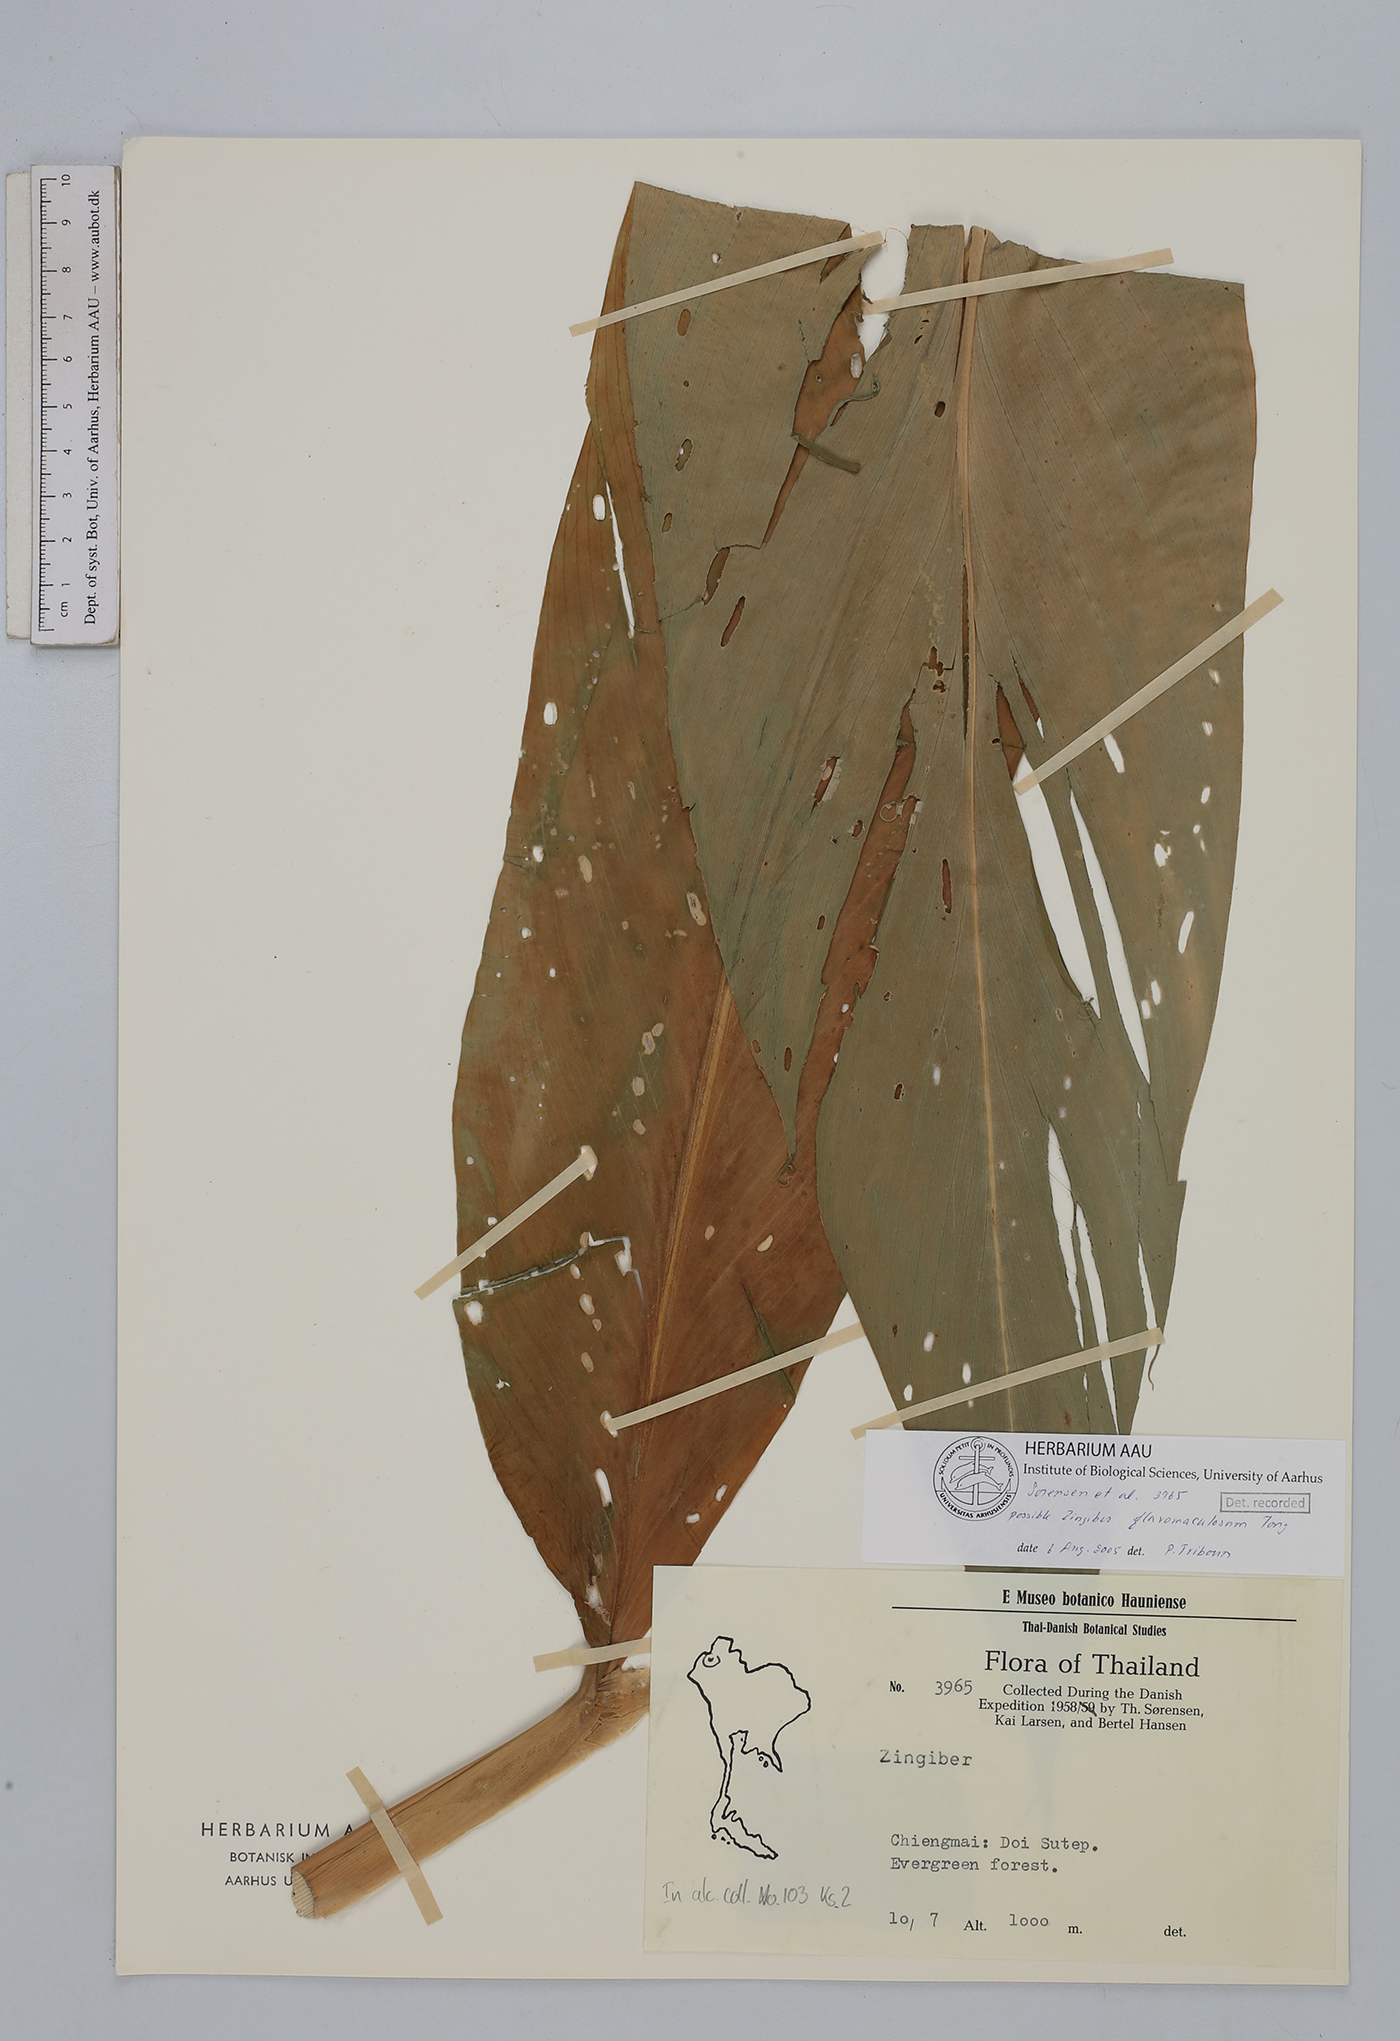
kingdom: Plantae
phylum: Tracheophyta
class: Liliopsida
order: Zingiberales
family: Zingiberaceae
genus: Zingiber
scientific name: Zingiber flavomaculosum
